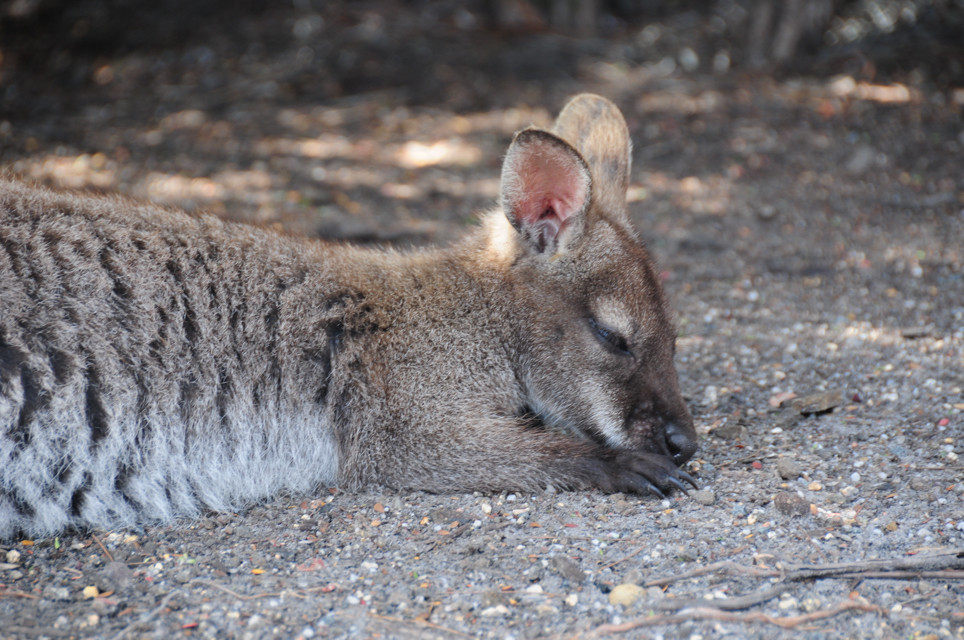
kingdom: Animalia
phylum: Chordata
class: Mammalia
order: Diprotodontia
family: Macropodidae
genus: Macropus
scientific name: Macropus rufogriseus
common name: Red-necked wallaby
